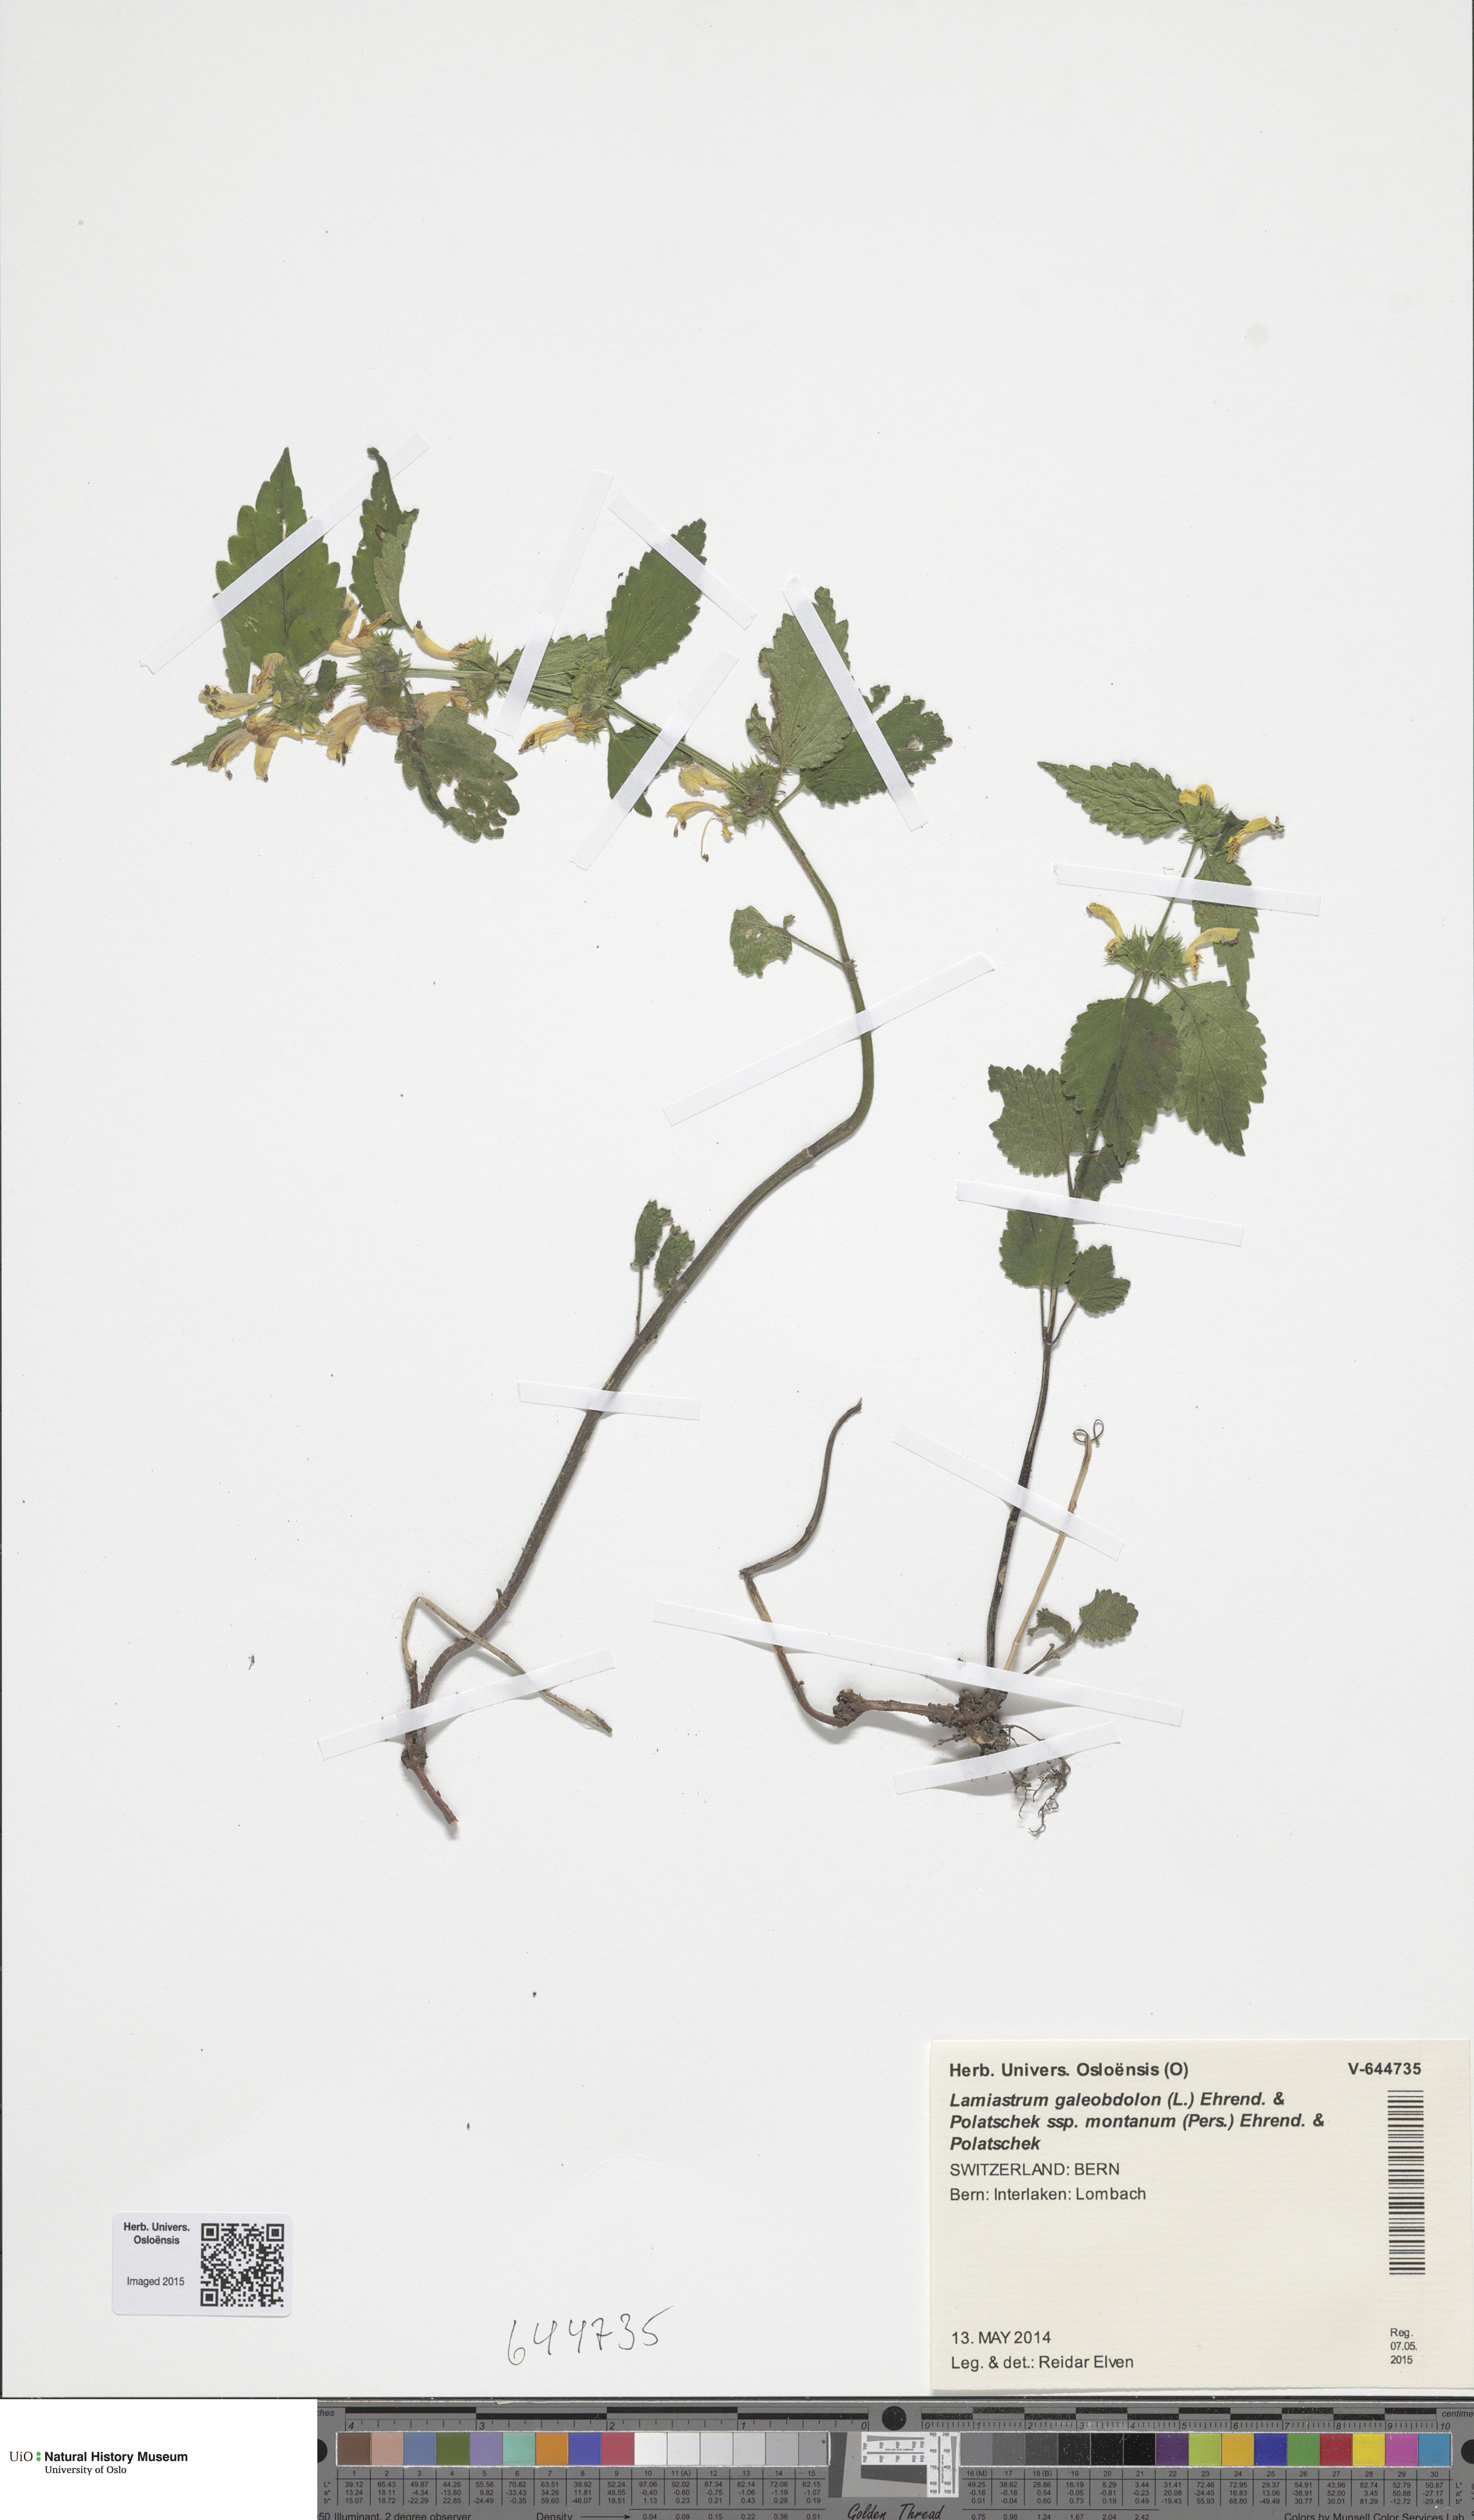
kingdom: Plantae
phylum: Tracheophyta
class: Magnoliopsida
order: Lamiales
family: Lamiaceae
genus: Lamium
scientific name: Lamium galeobdolon
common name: Yellow archangel
